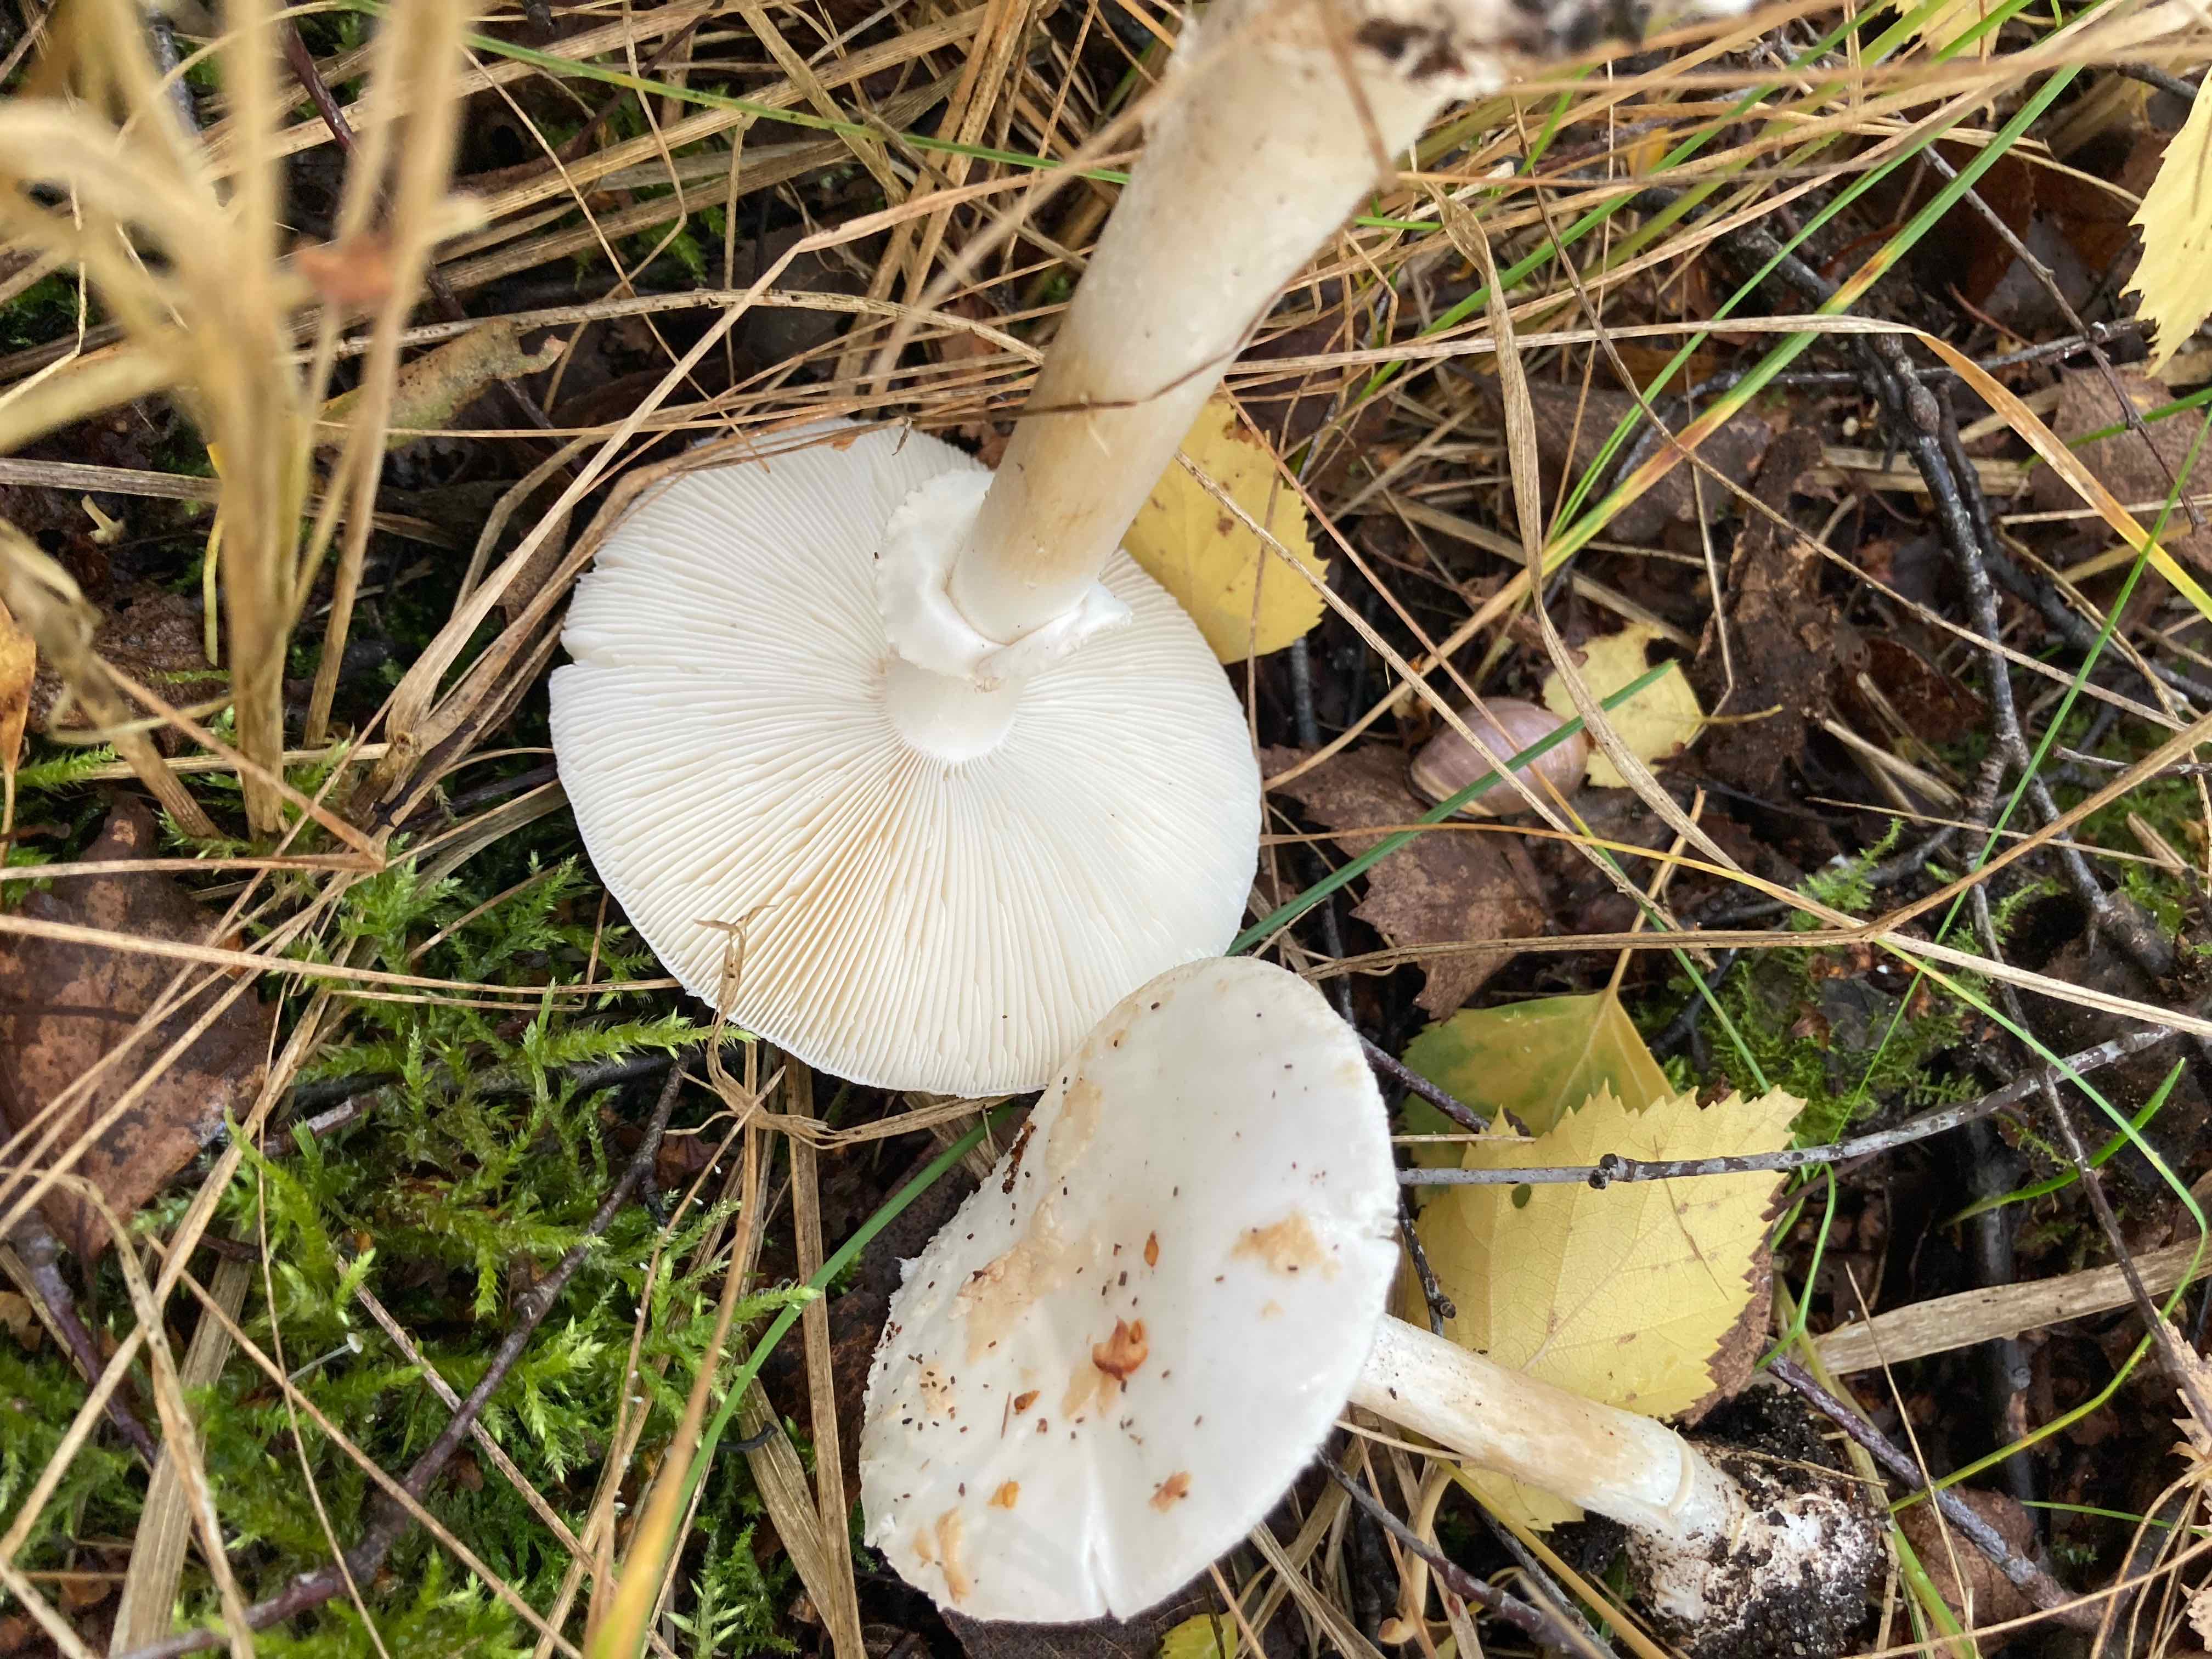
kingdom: Fungi
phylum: Basidiomycota
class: Agaricomycetes
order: Agaricales
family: Amanitaceae
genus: Amanita
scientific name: Amanita citrina
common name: False death-cap
